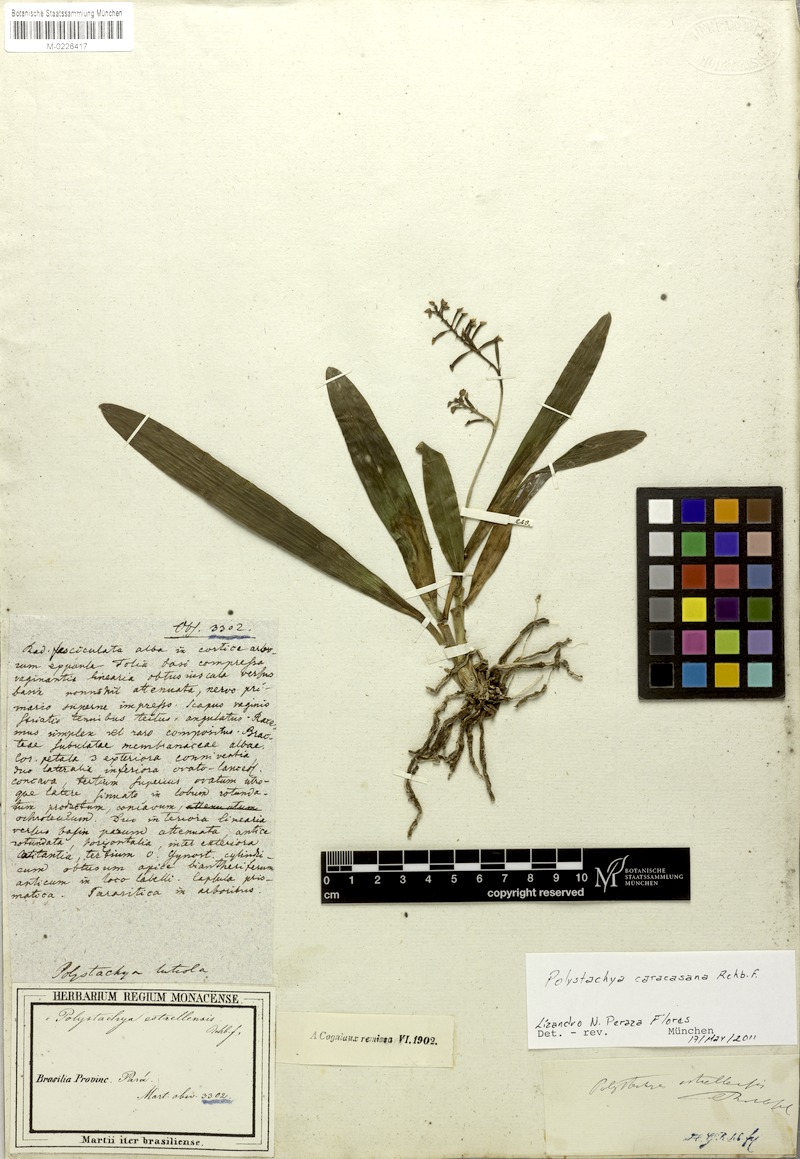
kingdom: Plantae
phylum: Tracheophyta
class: Liliopsida
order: Asparagales
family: Orchidaceae
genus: Polystachya
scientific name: Polystachya foliosa
